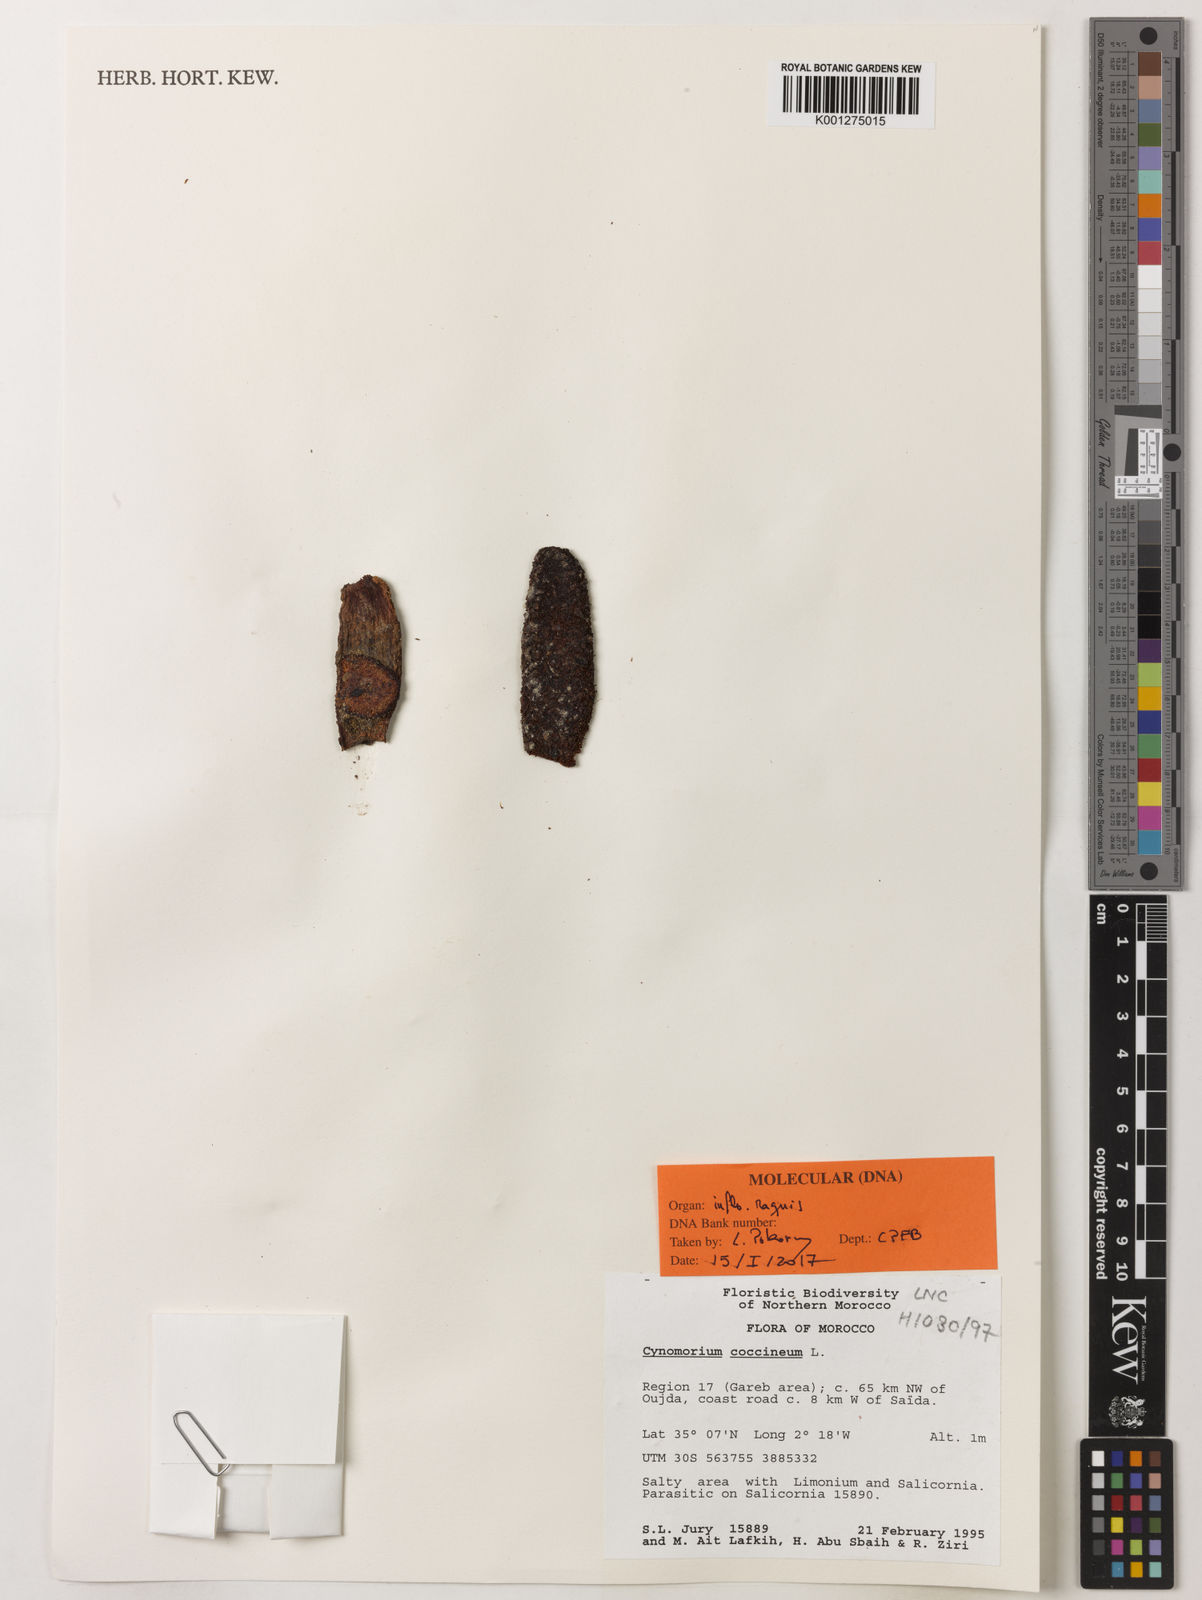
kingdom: Plantae
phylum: Tracheophyta
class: Magnoliopsida
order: Saxifragales
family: Cynomoriaceae
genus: Cynomorium
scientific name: Cynomorium coccineum
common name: Maltese-mushroom
